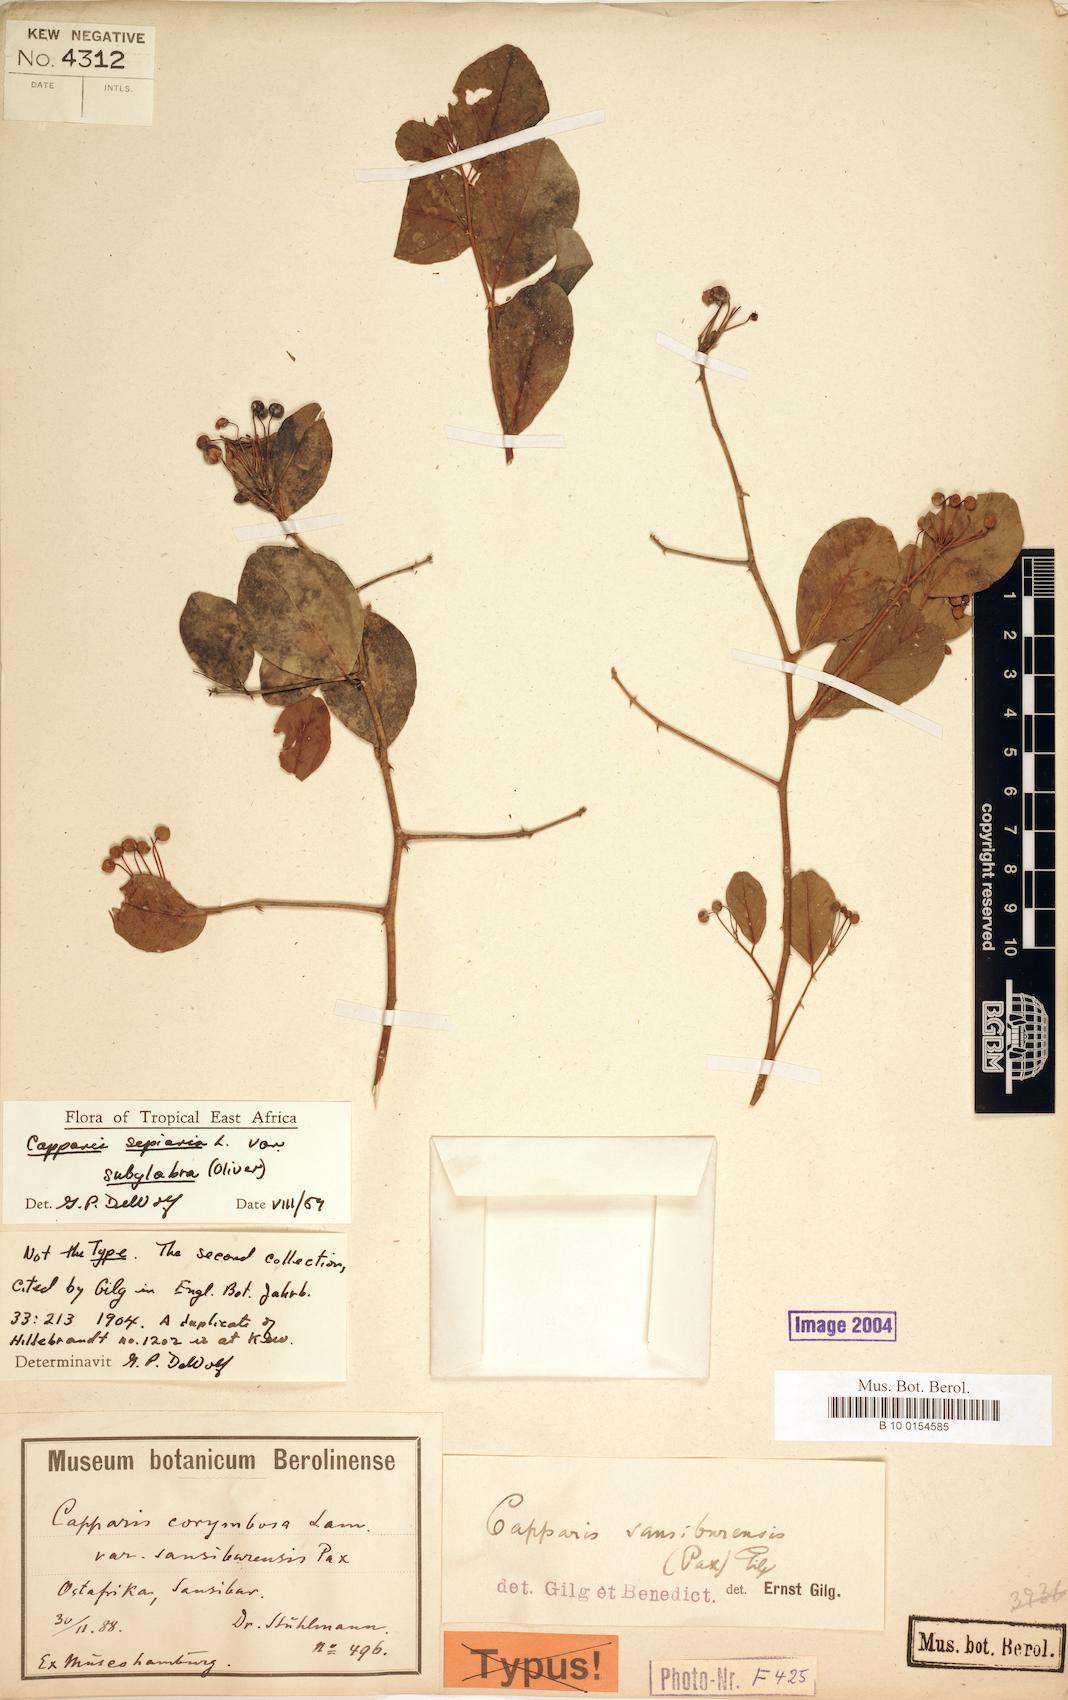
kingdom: Plantae
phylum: Tracheophyta
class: Magnoliopsida
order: Brassicales
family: Capparaceae
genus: Capparis
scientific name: Capparis sepiaria
